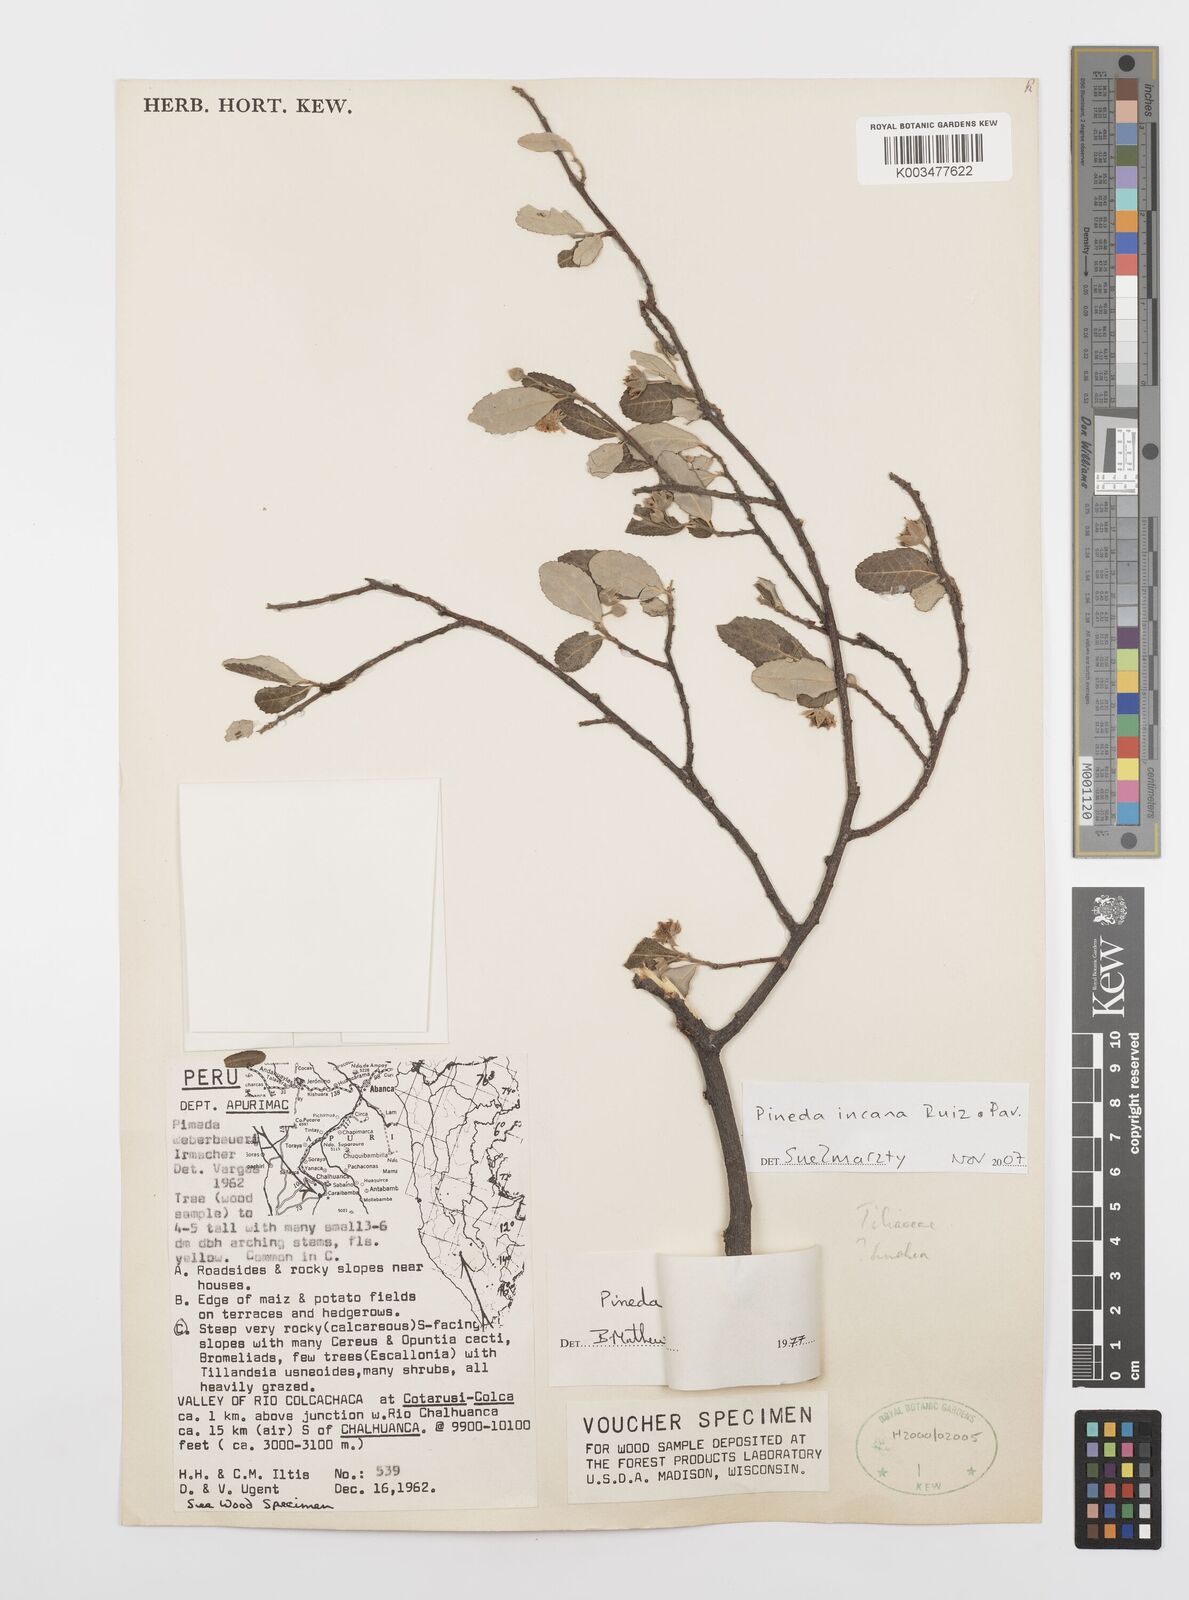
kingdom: Plantae
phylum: Tracheophyta
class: Magnoliopsida
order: Malpighiales
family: Salicaceae
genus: Pineda
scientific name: Pineda incana
